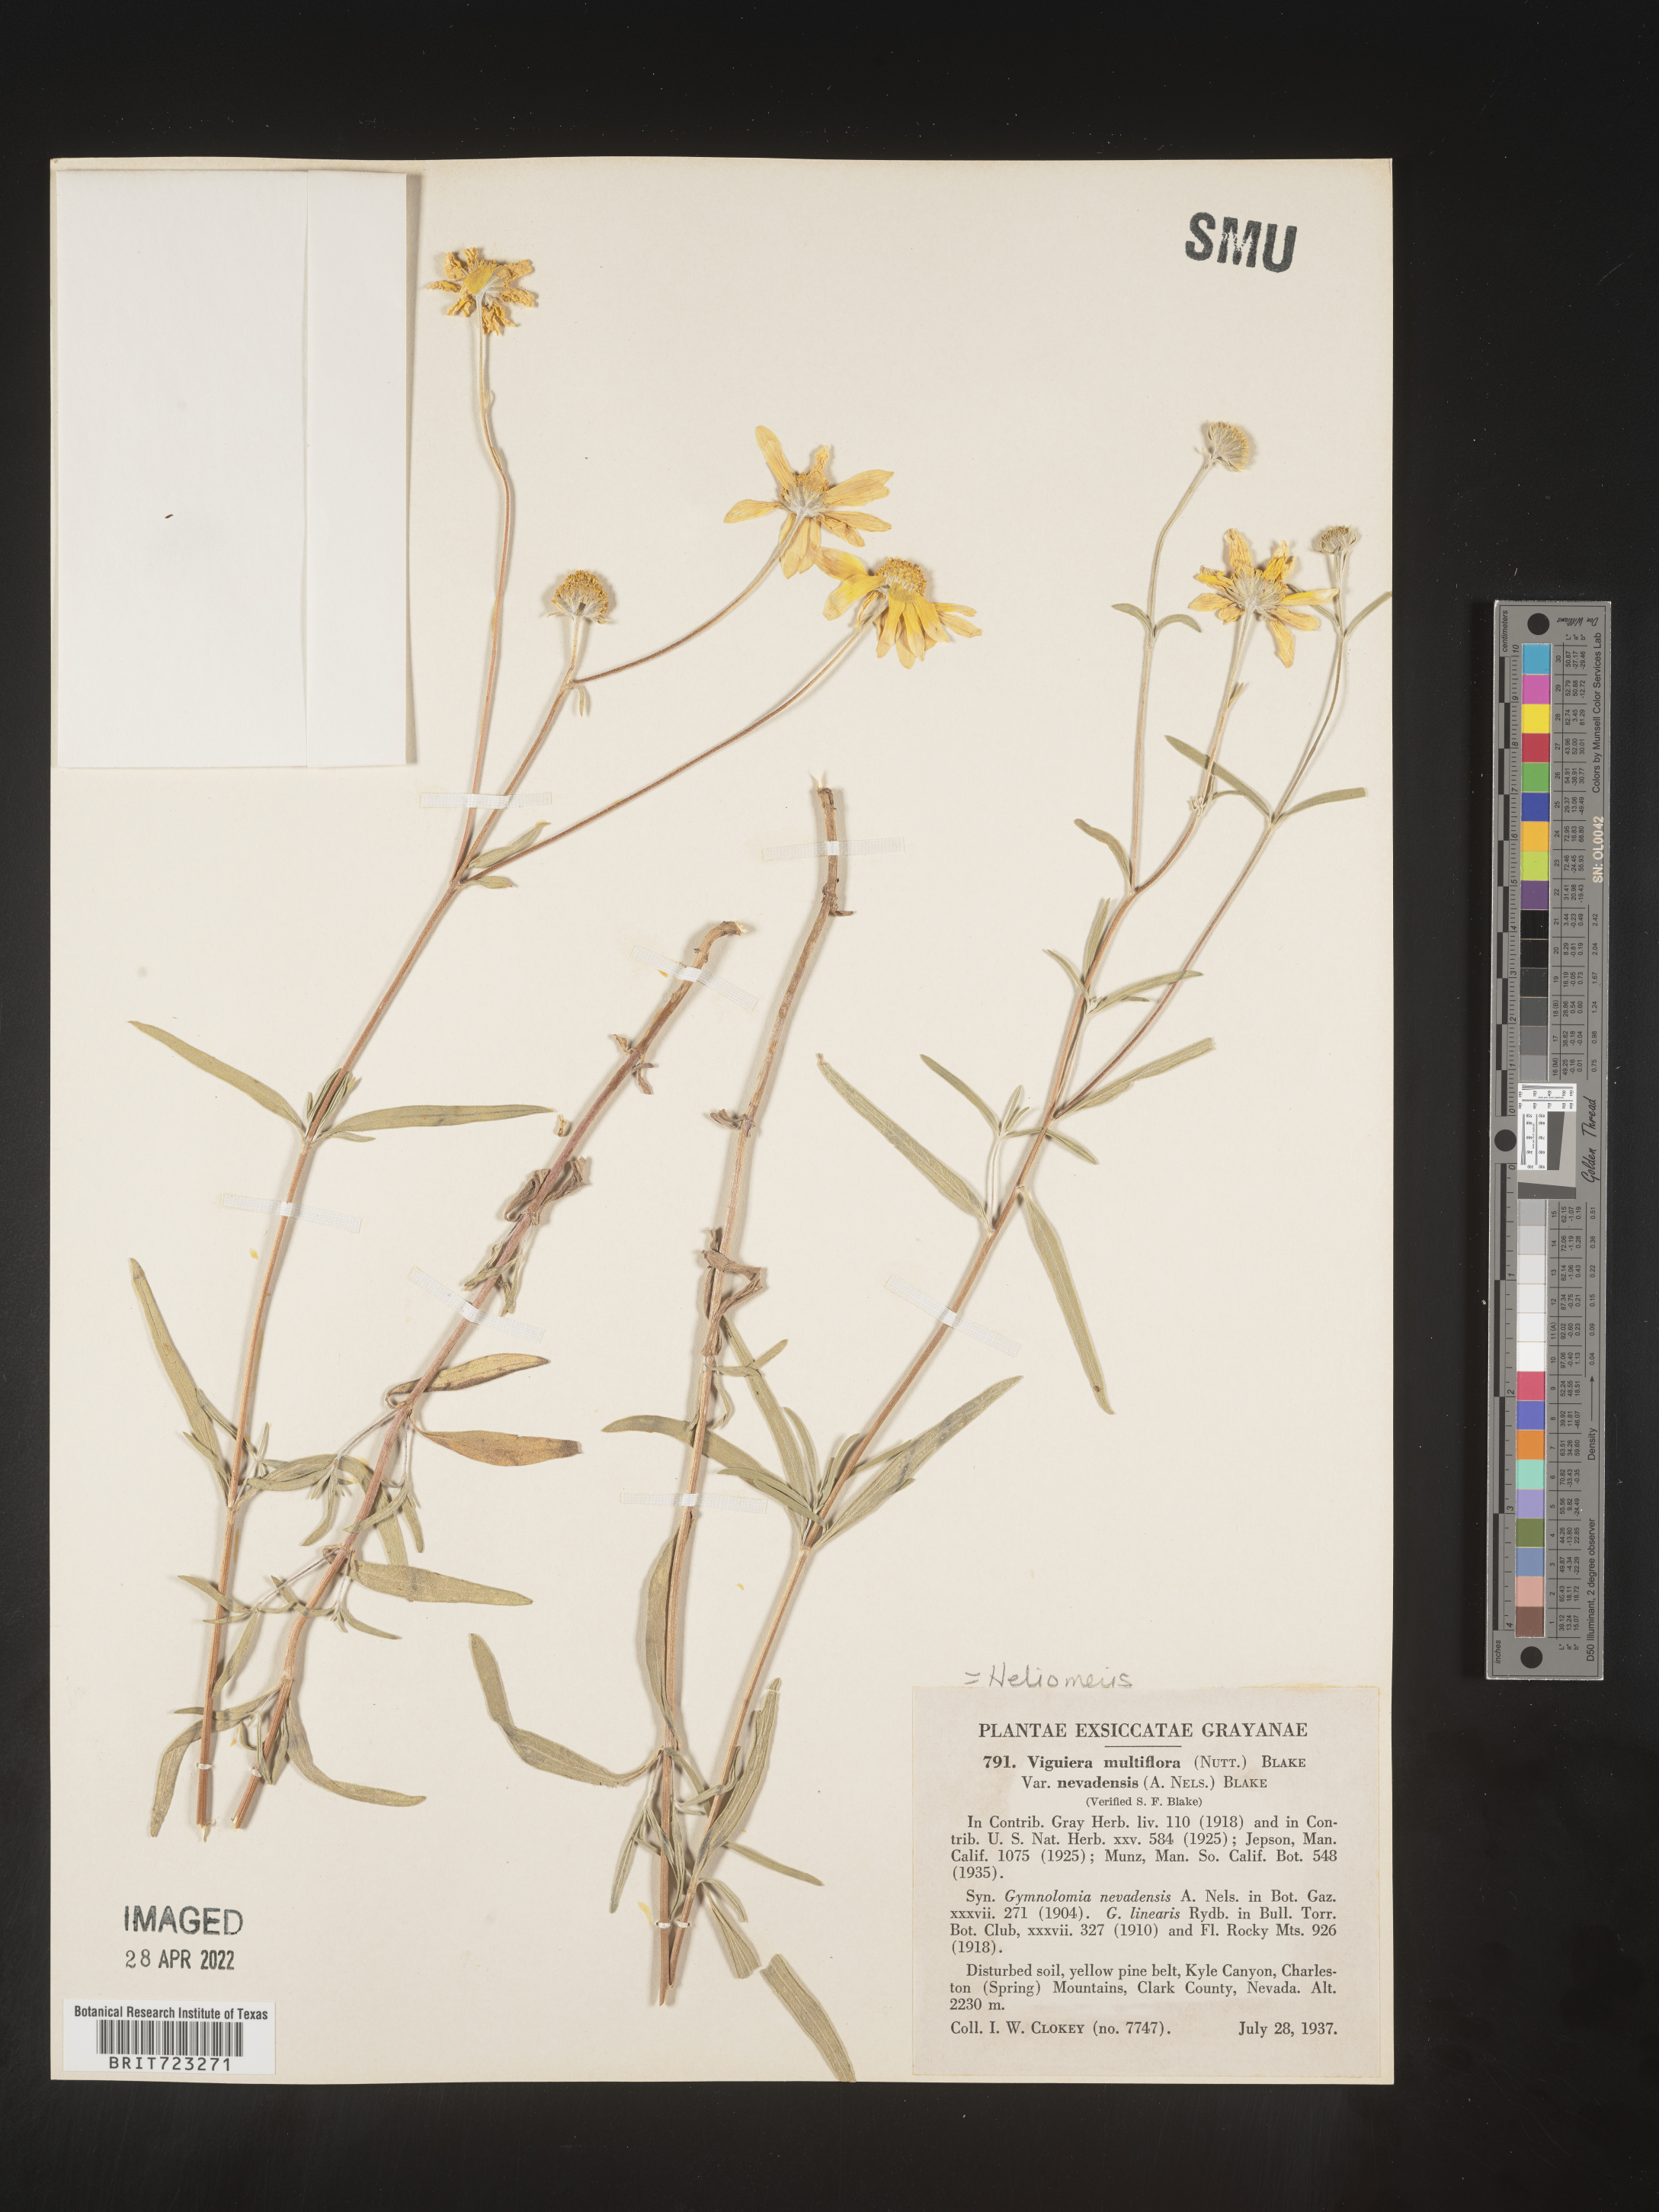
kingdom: Plantae
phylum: Tracheophyta
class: Magnoliopsida
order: Asterales
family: Asteraceae
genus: Heliomeris
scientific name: Heliomeris multiflora
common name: Showy goldeneye
